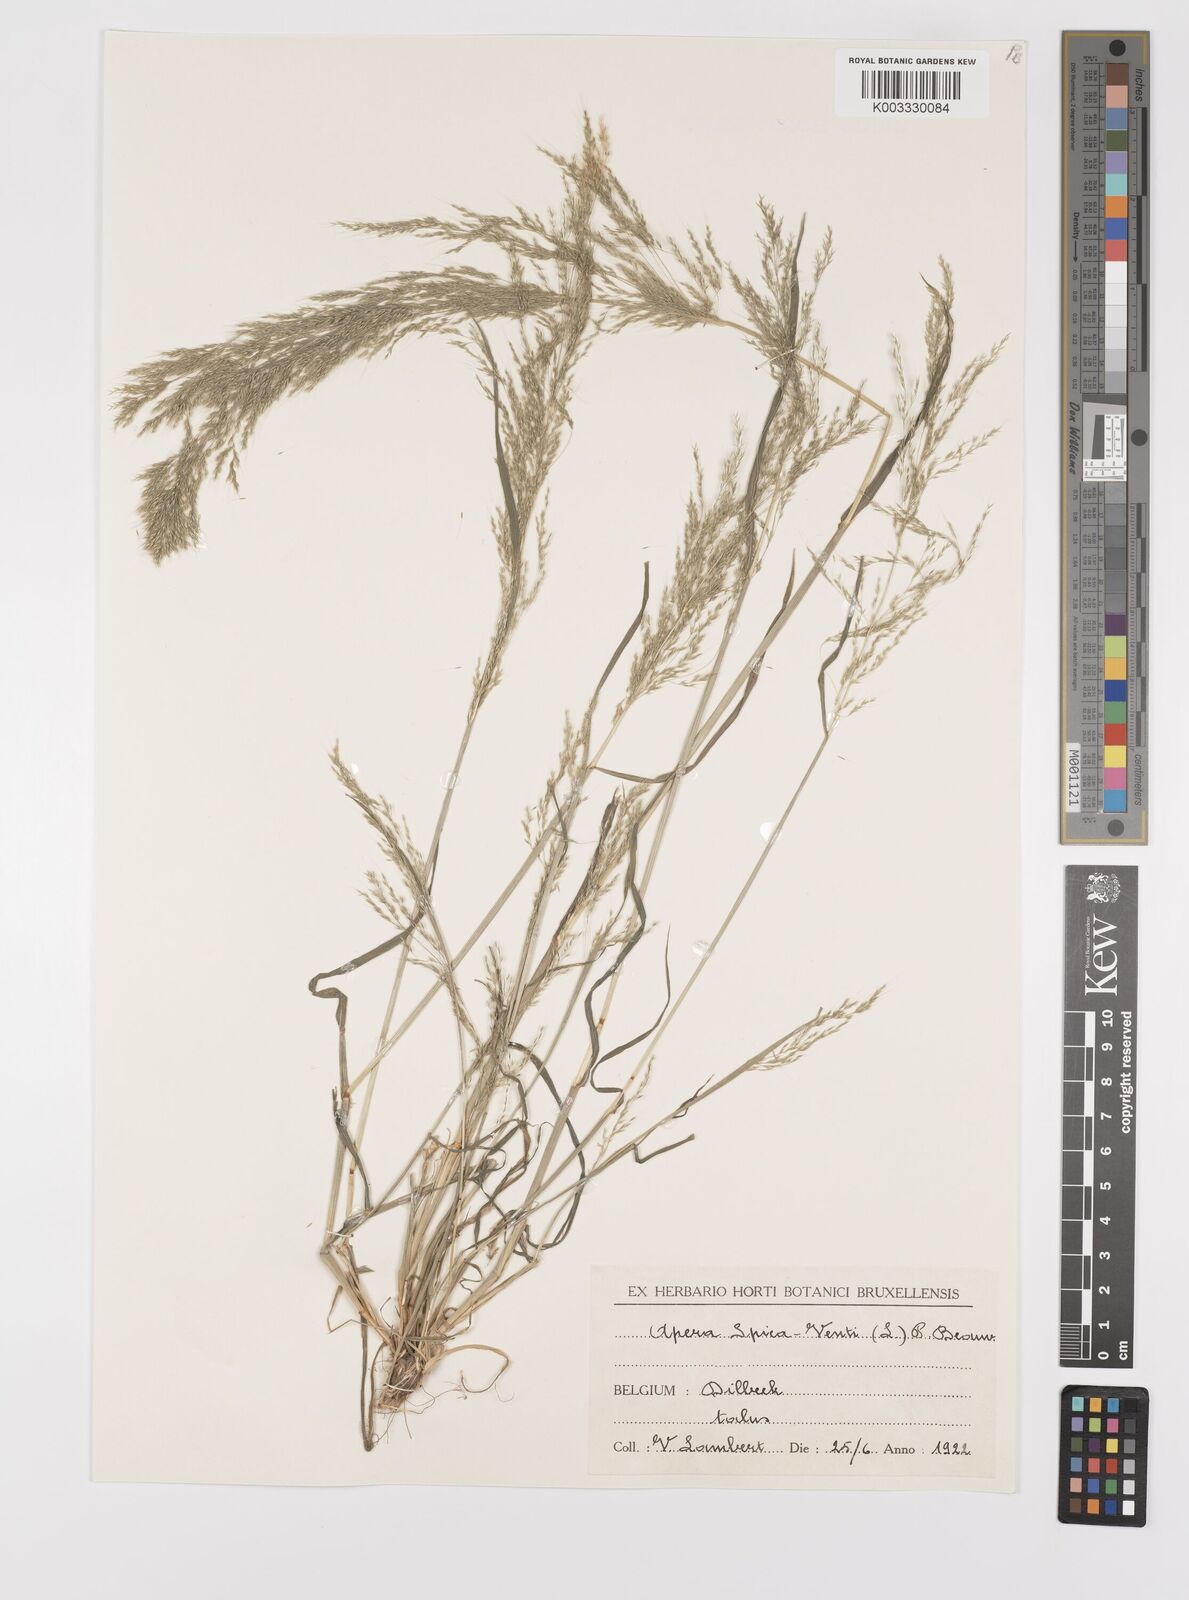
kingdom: Plantae
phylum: Tracheophyta
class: Liliopsida
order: Poales
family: Poaceae
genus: Apera
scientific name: Apera spica-venti
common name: Loose silky-bent
